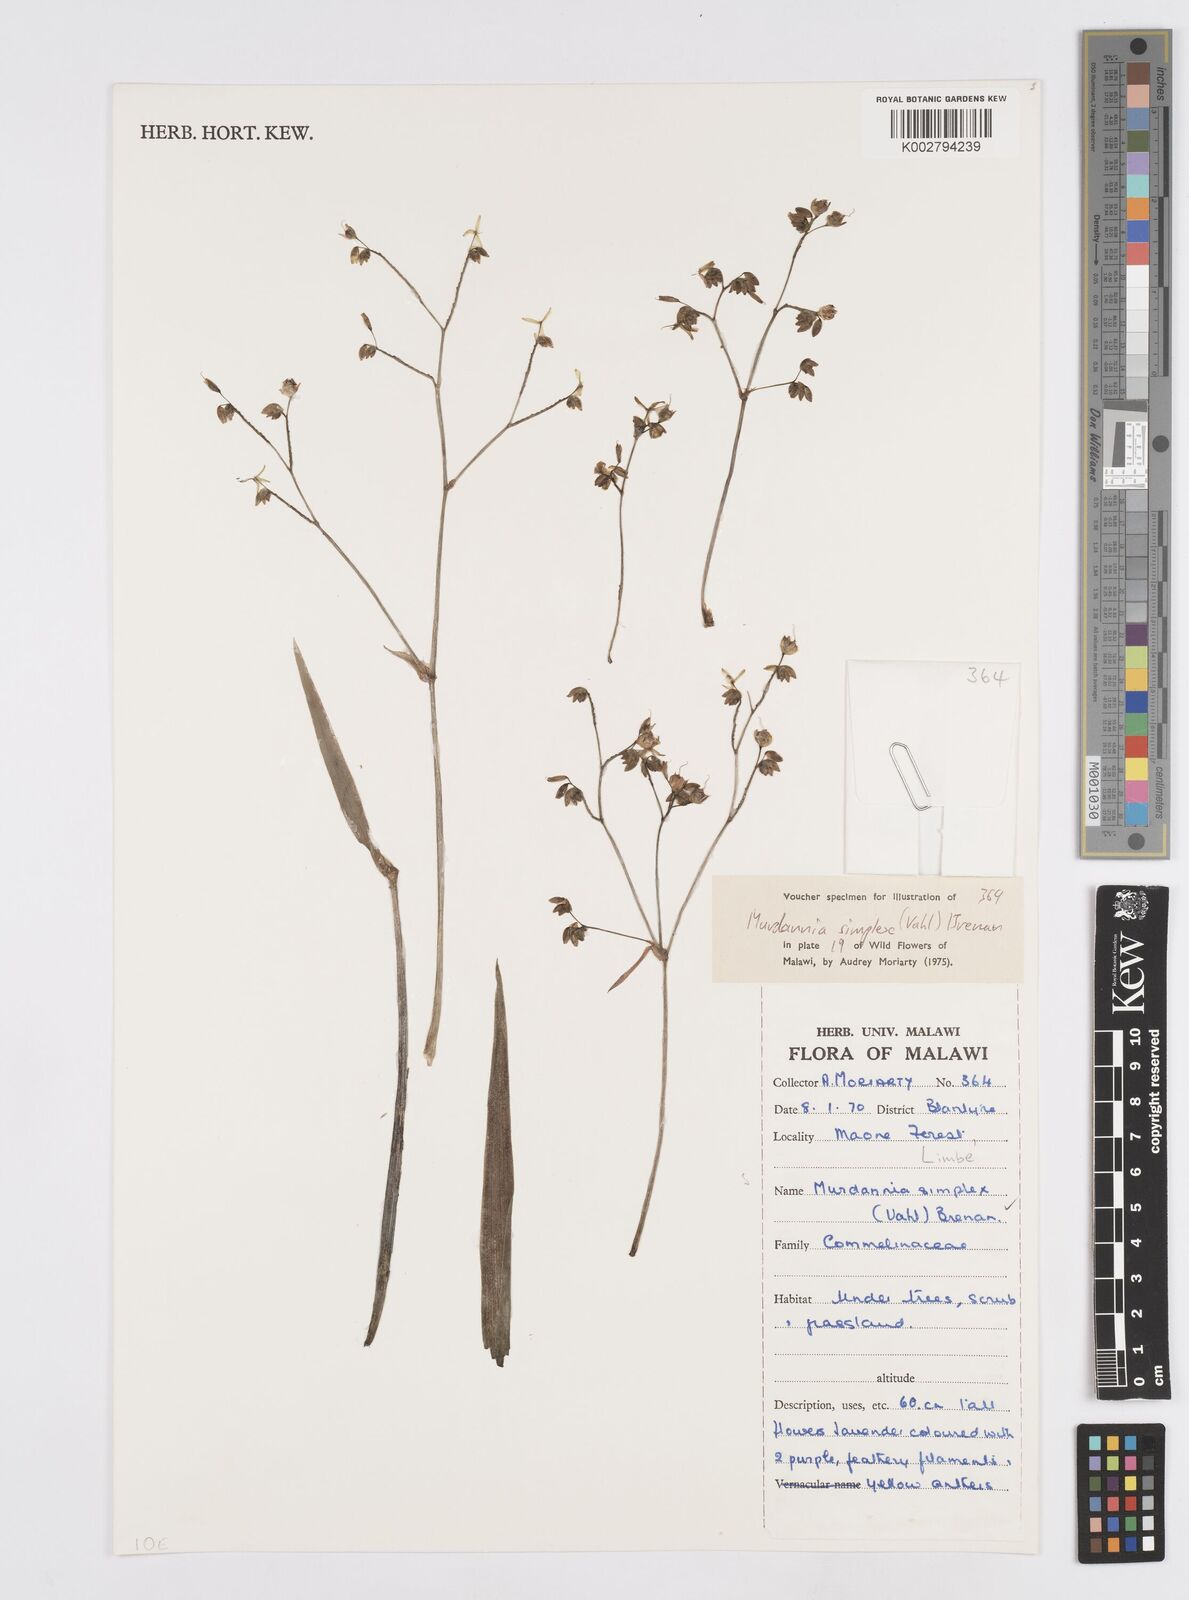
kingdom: Plantae
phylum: Tracheophyta
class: Liliopsida
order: Commelinales
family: Commelinaceae
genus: Murdannia
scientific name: Murdannia simplex
